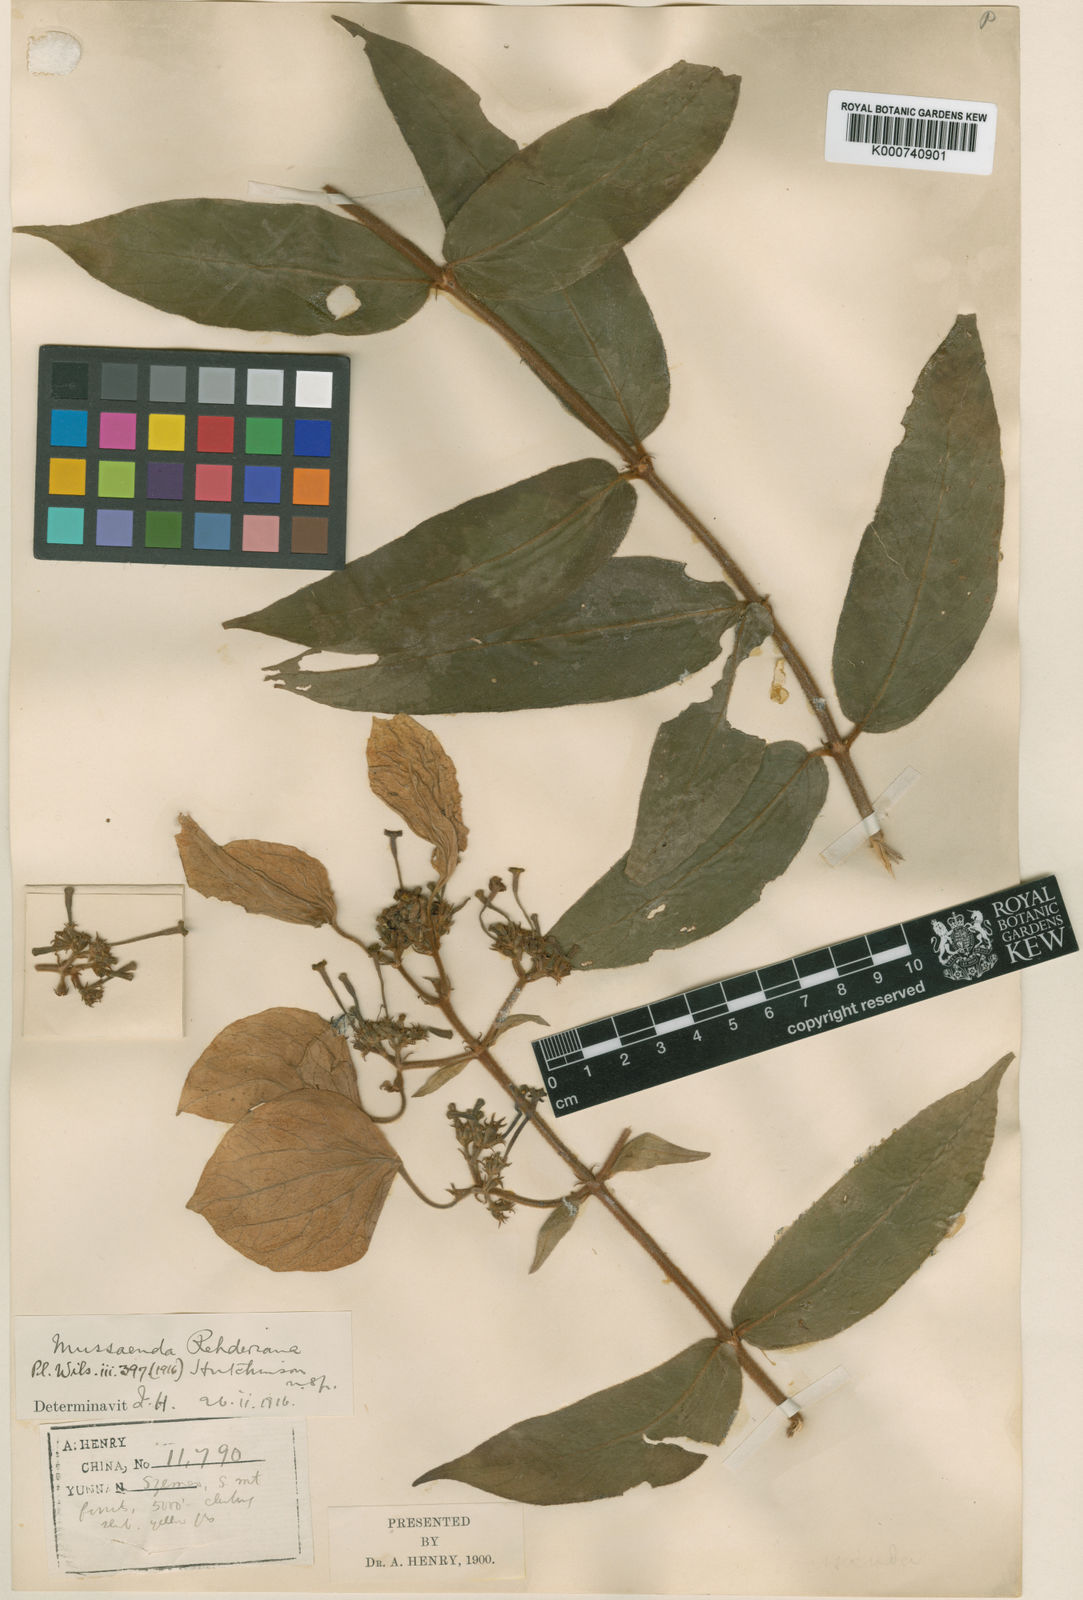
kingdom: Plantae
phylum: Tracheophyta
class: Magnoliopsida
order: Gentianales
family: Rubiaceae
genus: Mussaenda
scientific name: Mussaenda
